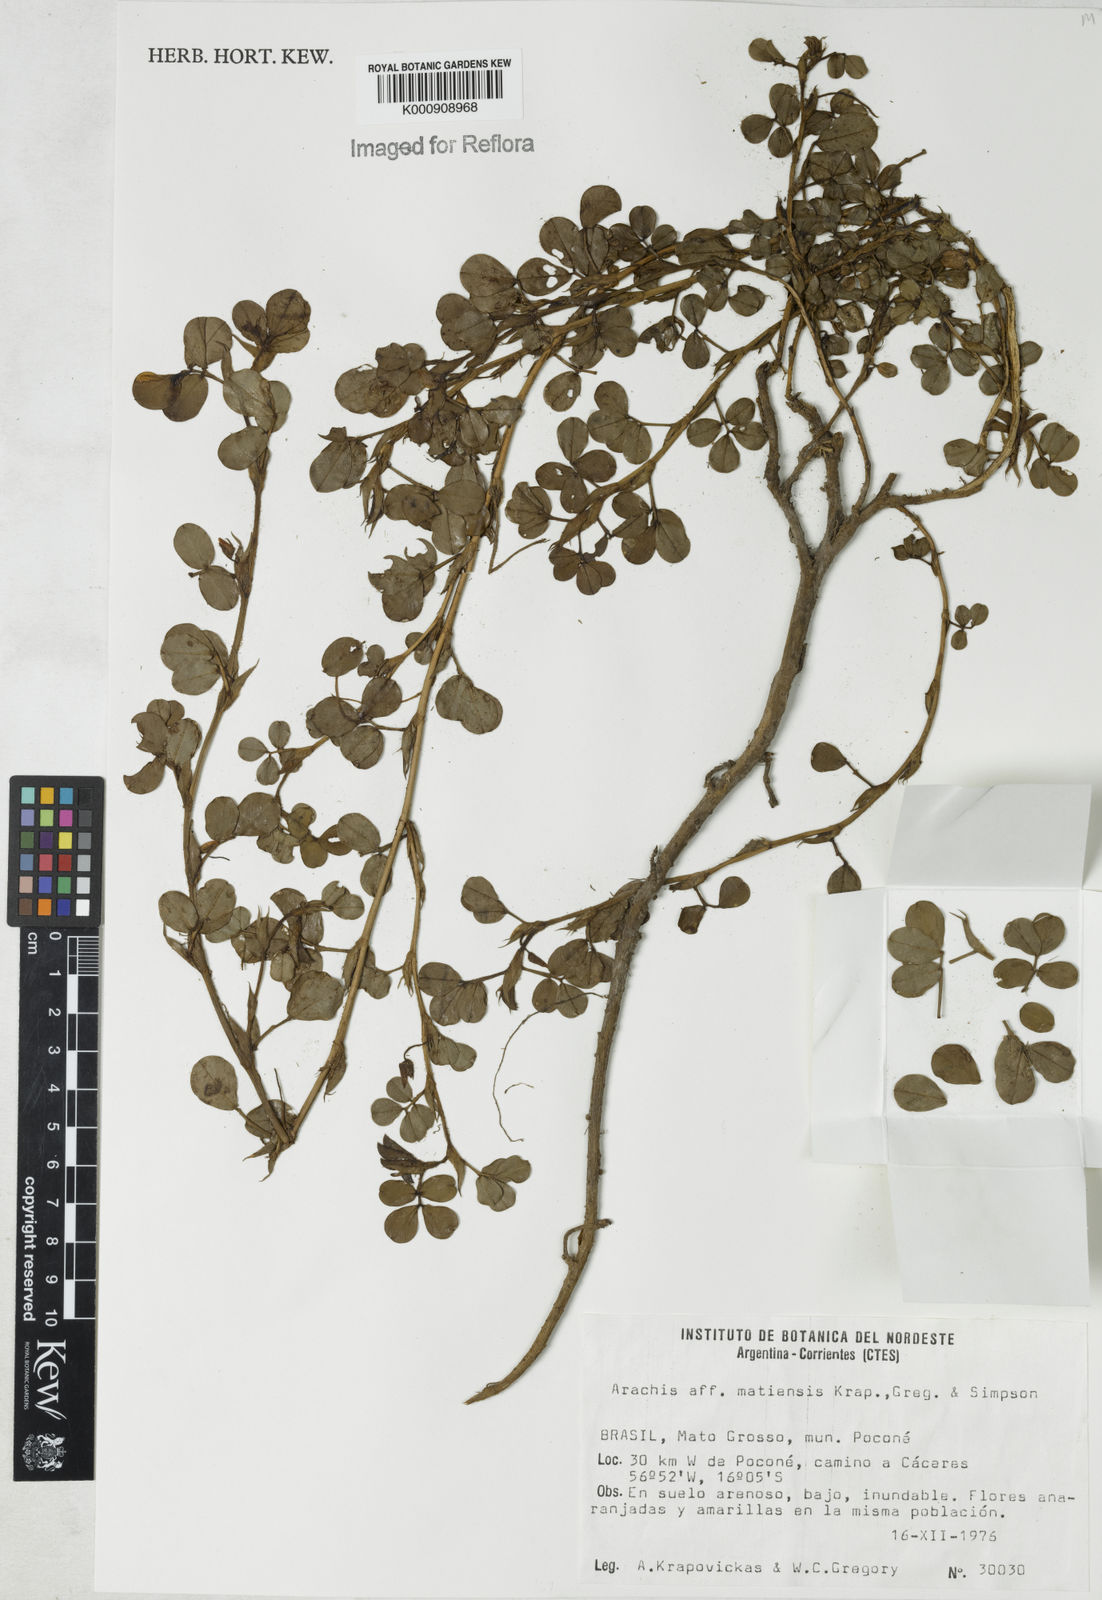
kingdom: Plantae
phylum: Tracheophyta
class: Magnoliopsida
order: Fabales
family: Fabaceae
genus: Arachis
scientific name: Arachis matiensis
